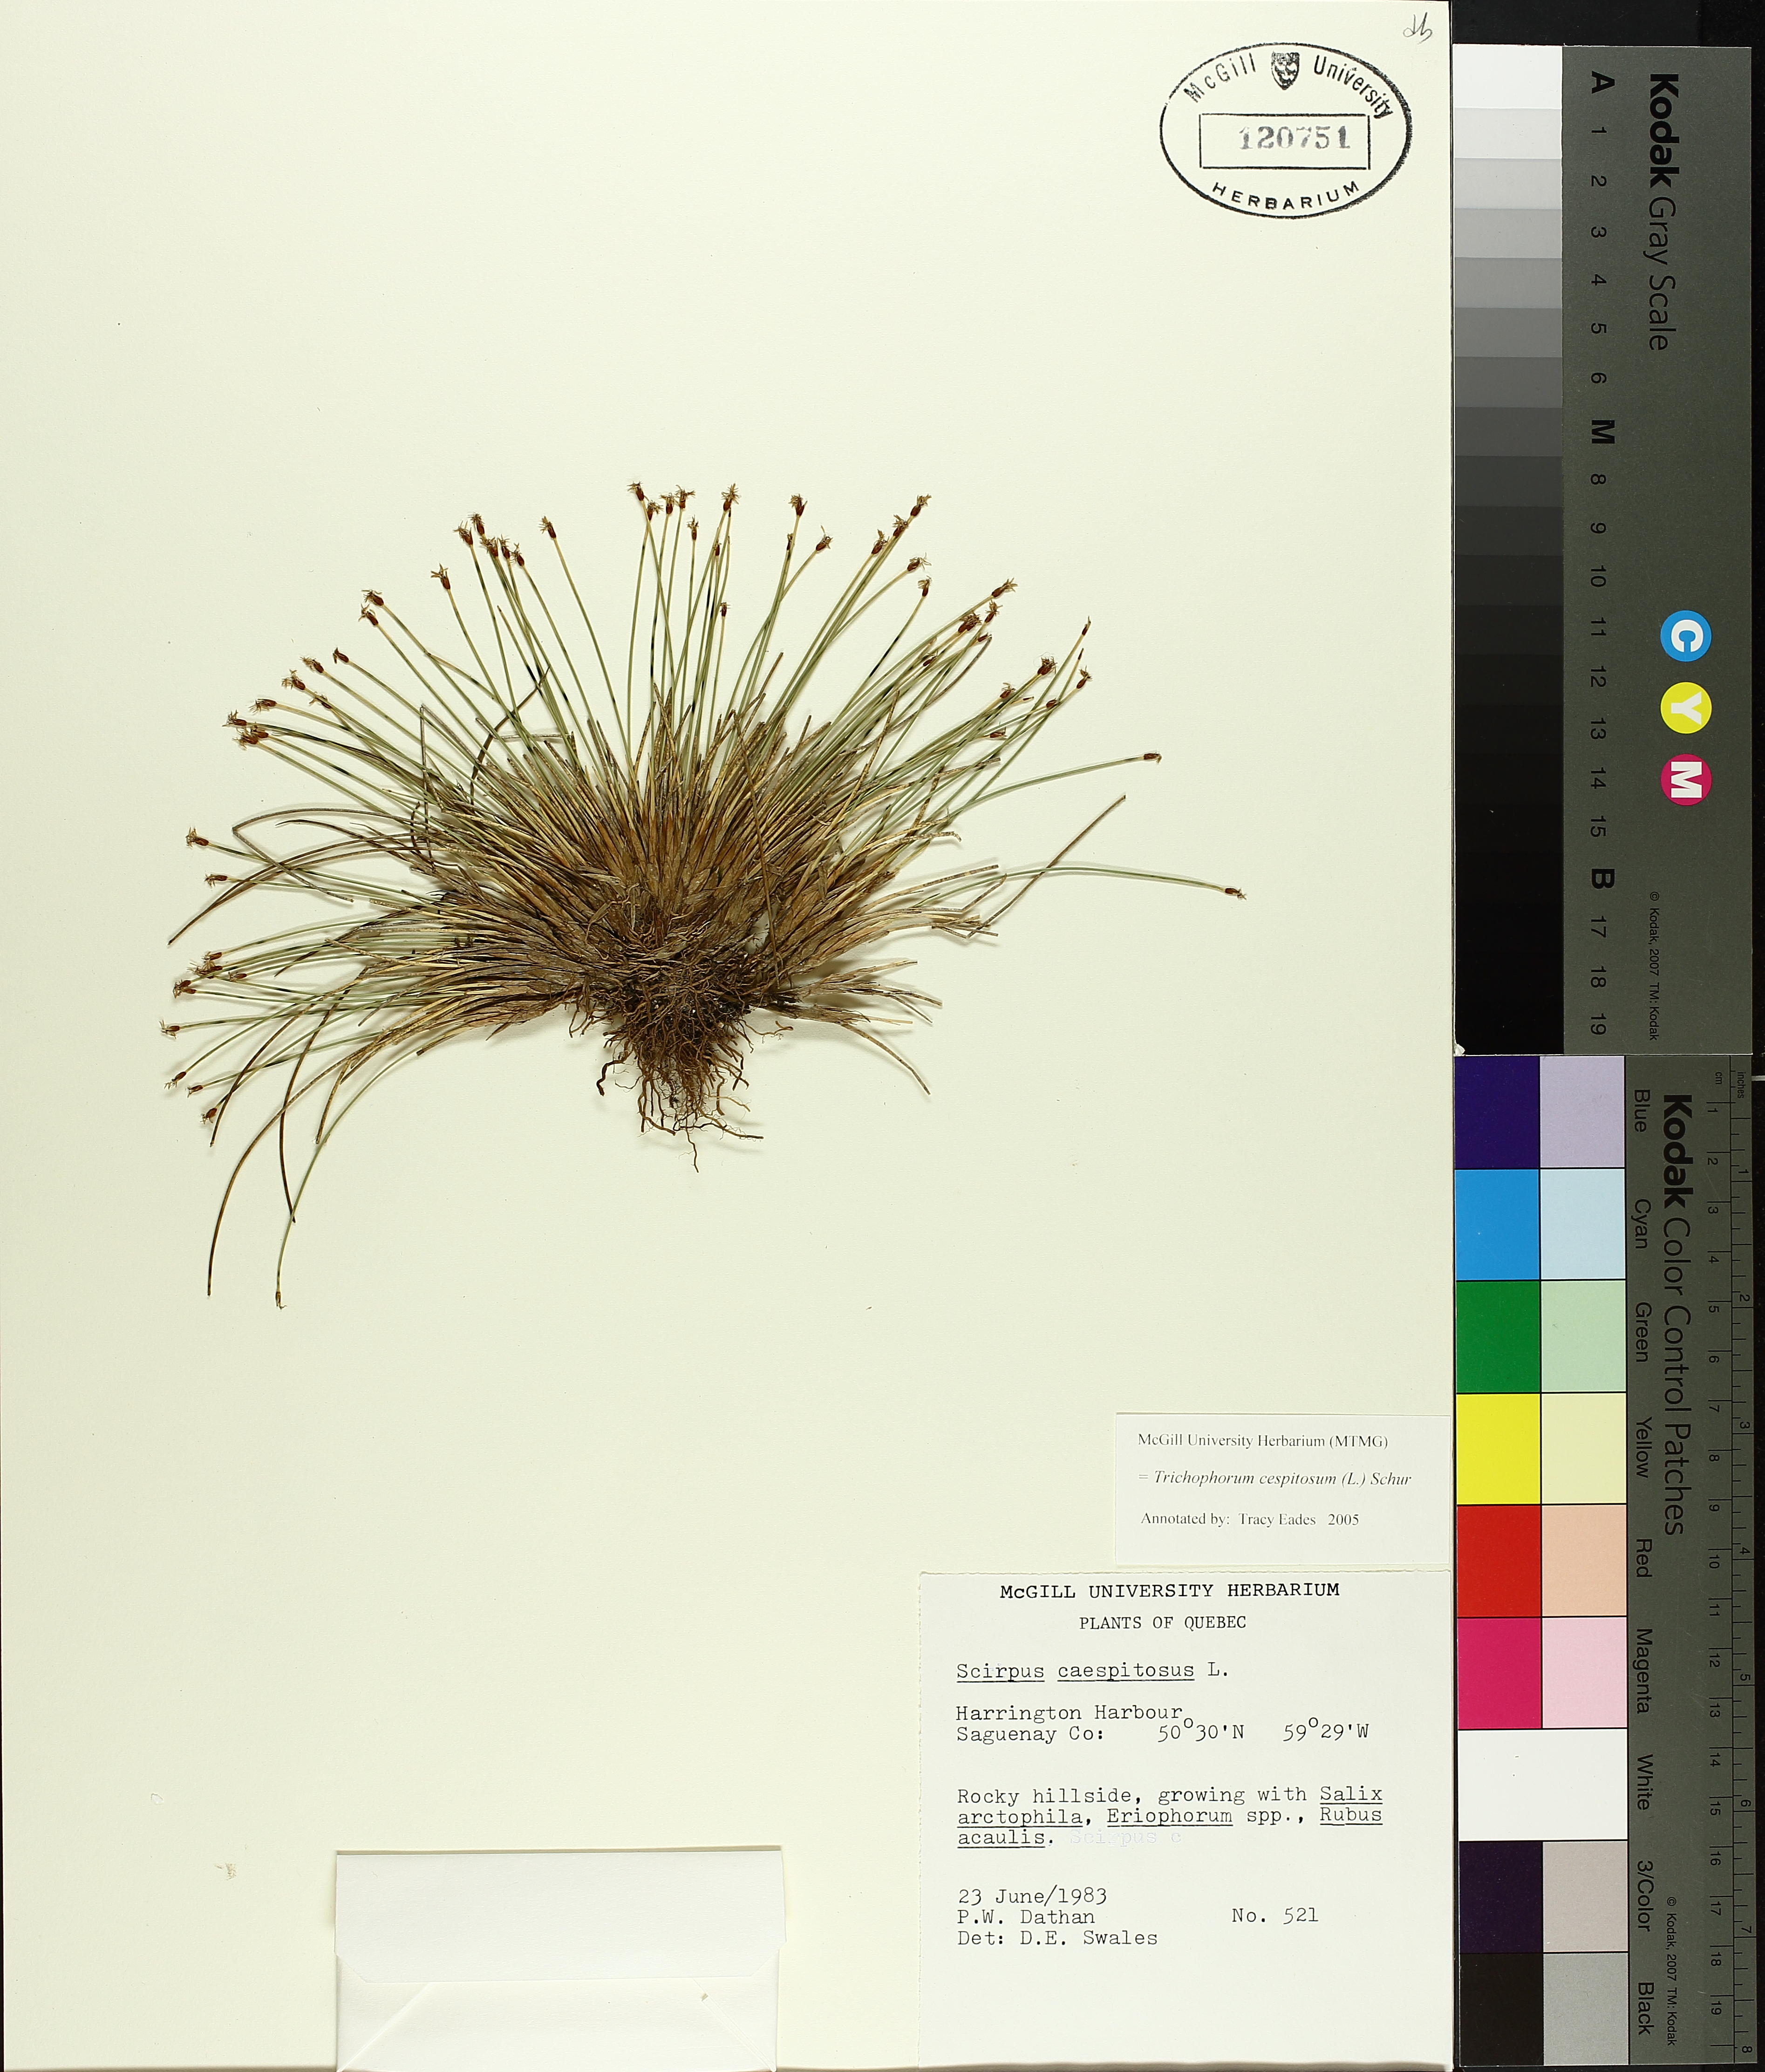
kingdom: Plantae
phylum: Tracheophyta
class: Liliopsida
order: Poales
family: Cyperaceae
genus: Trichophorum
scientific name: Trichophorum cespitosum
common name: Cespitose bulrush
